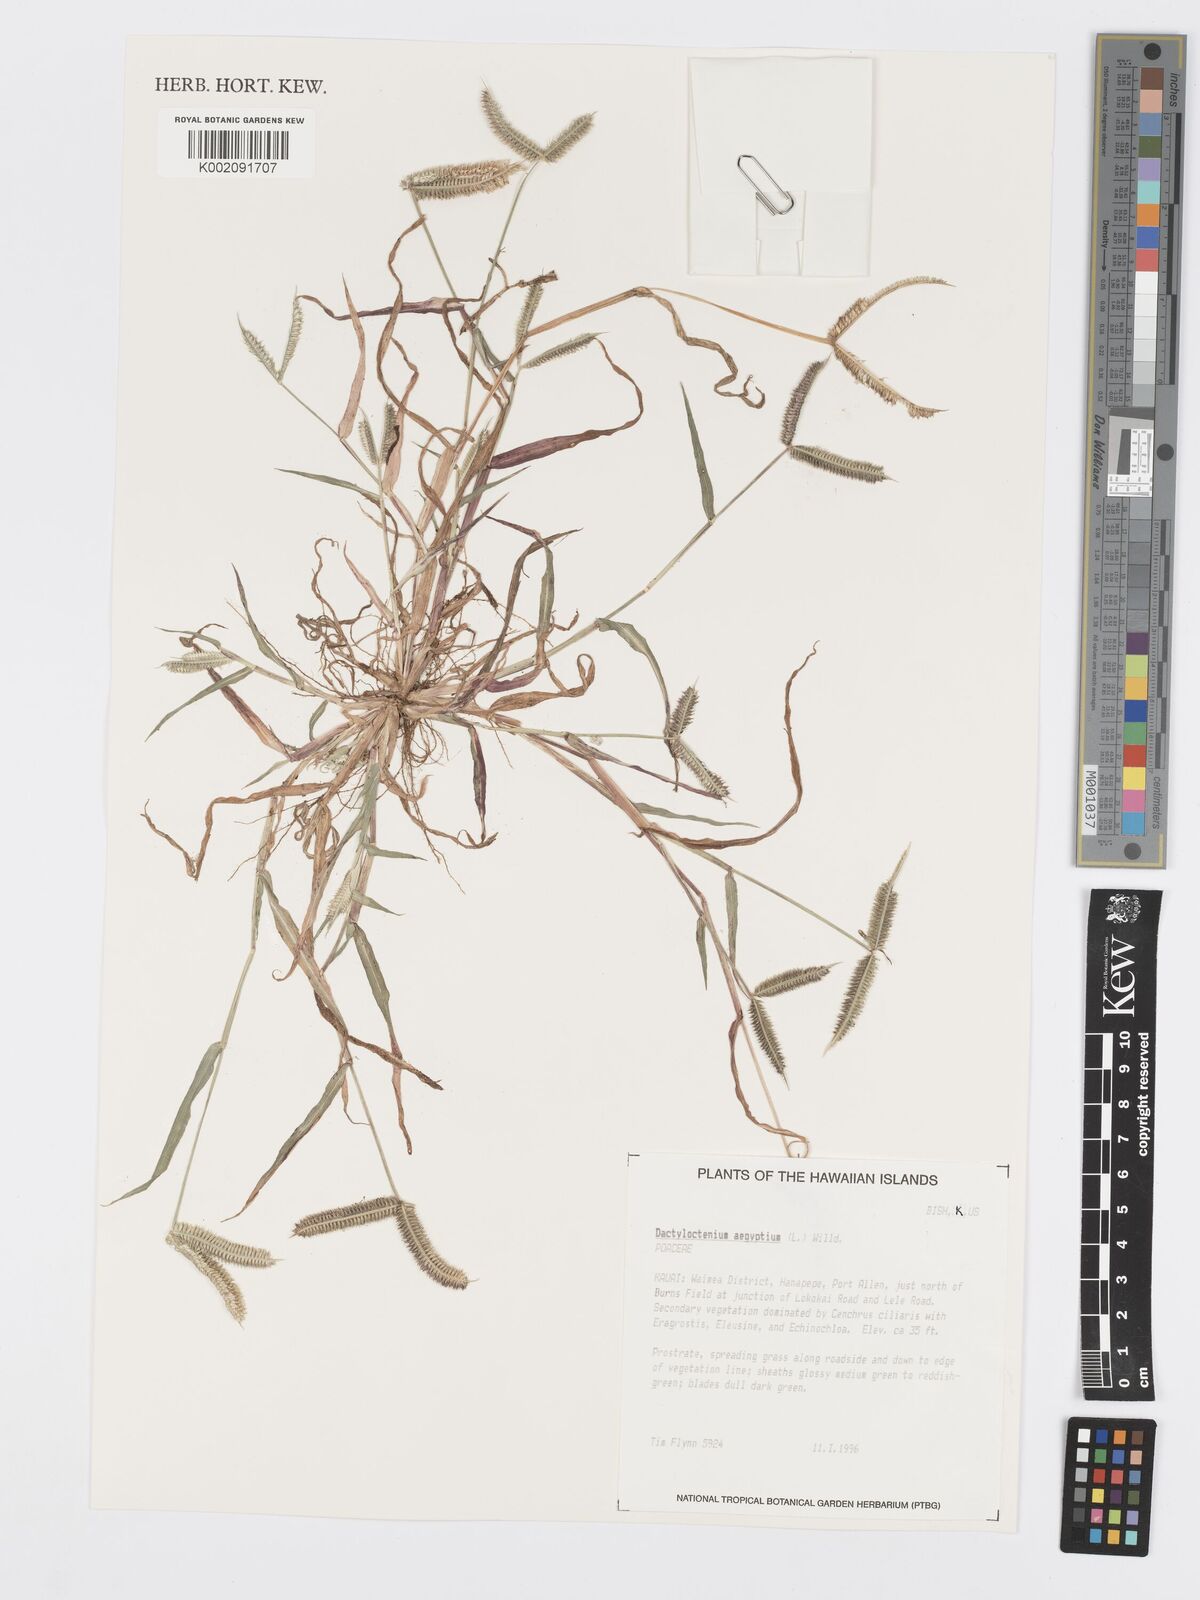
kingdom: Plantae
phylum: Tracheophyta
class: Liliopsida
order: Poales
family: Poaceae
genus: Dactyloctenium
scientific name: Dactyloctenium aegyptium
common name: Egyptian grass
